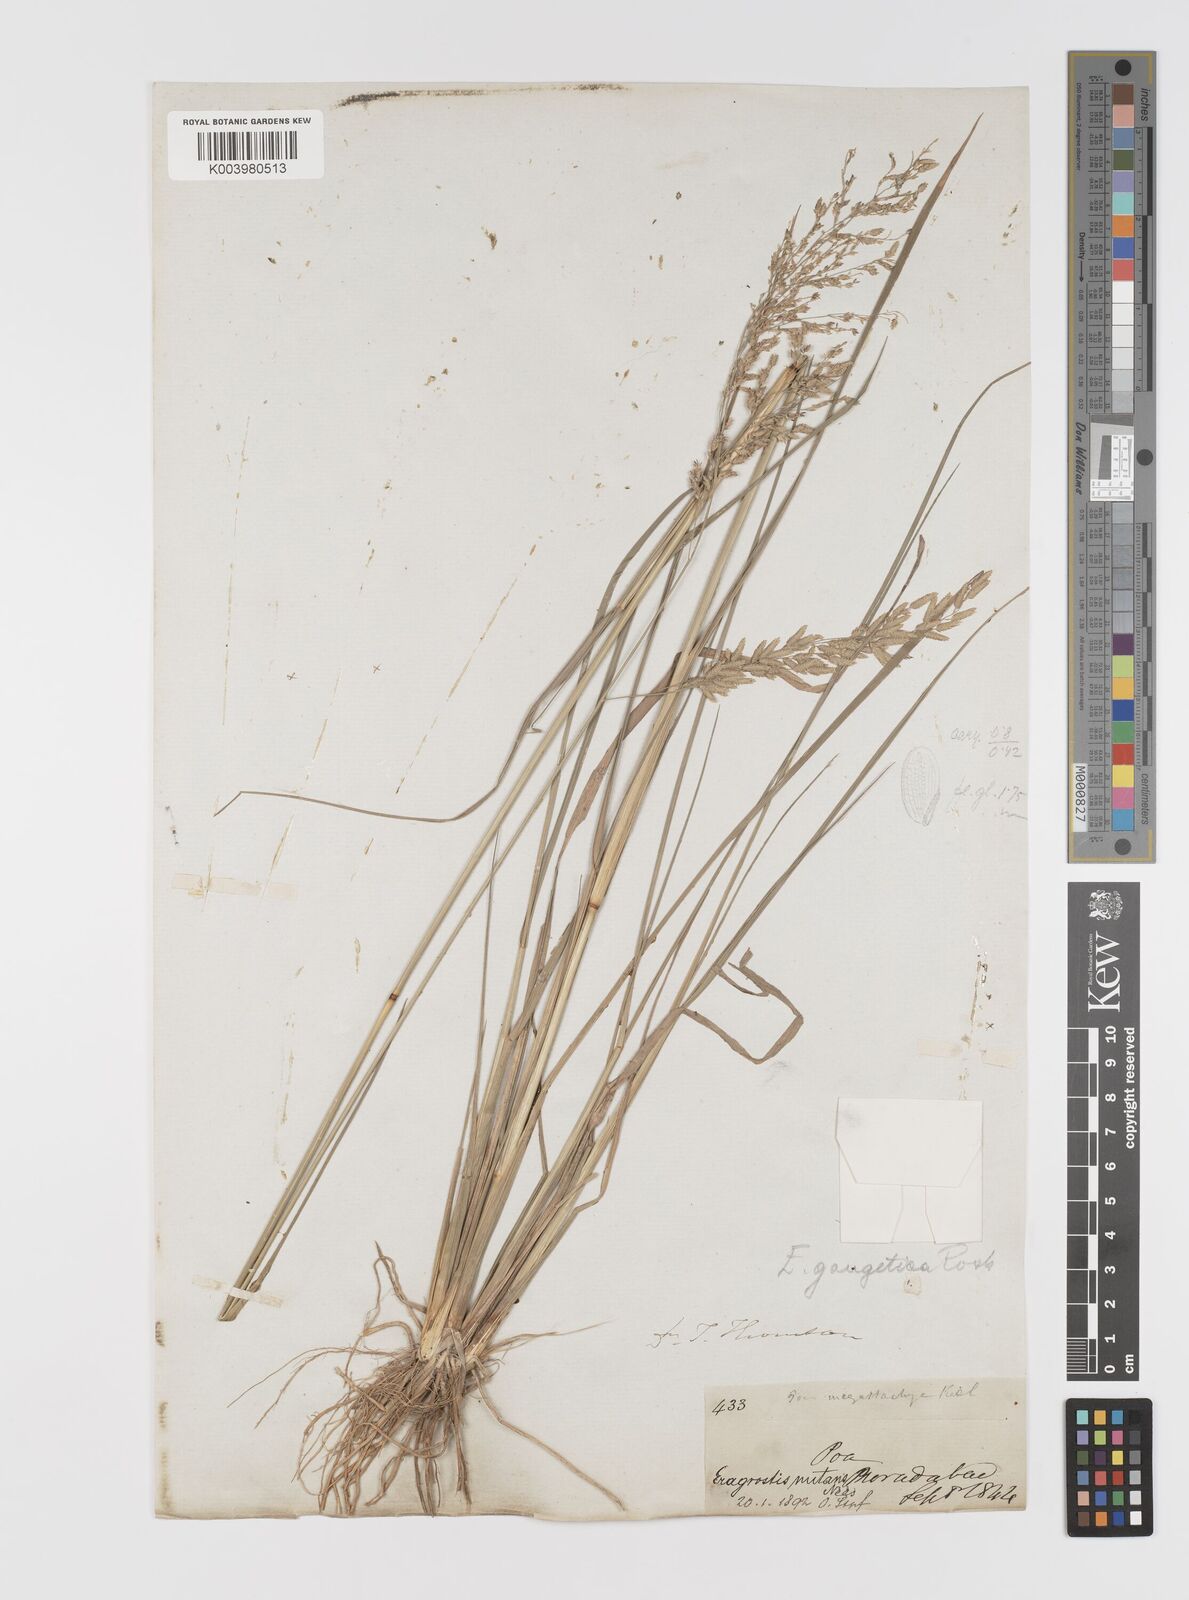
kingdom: Plantae
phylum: Tracheophyta
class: Liliopsida
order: Poales
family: Poaceae
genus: Eragrostis
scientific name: Eragrostis
